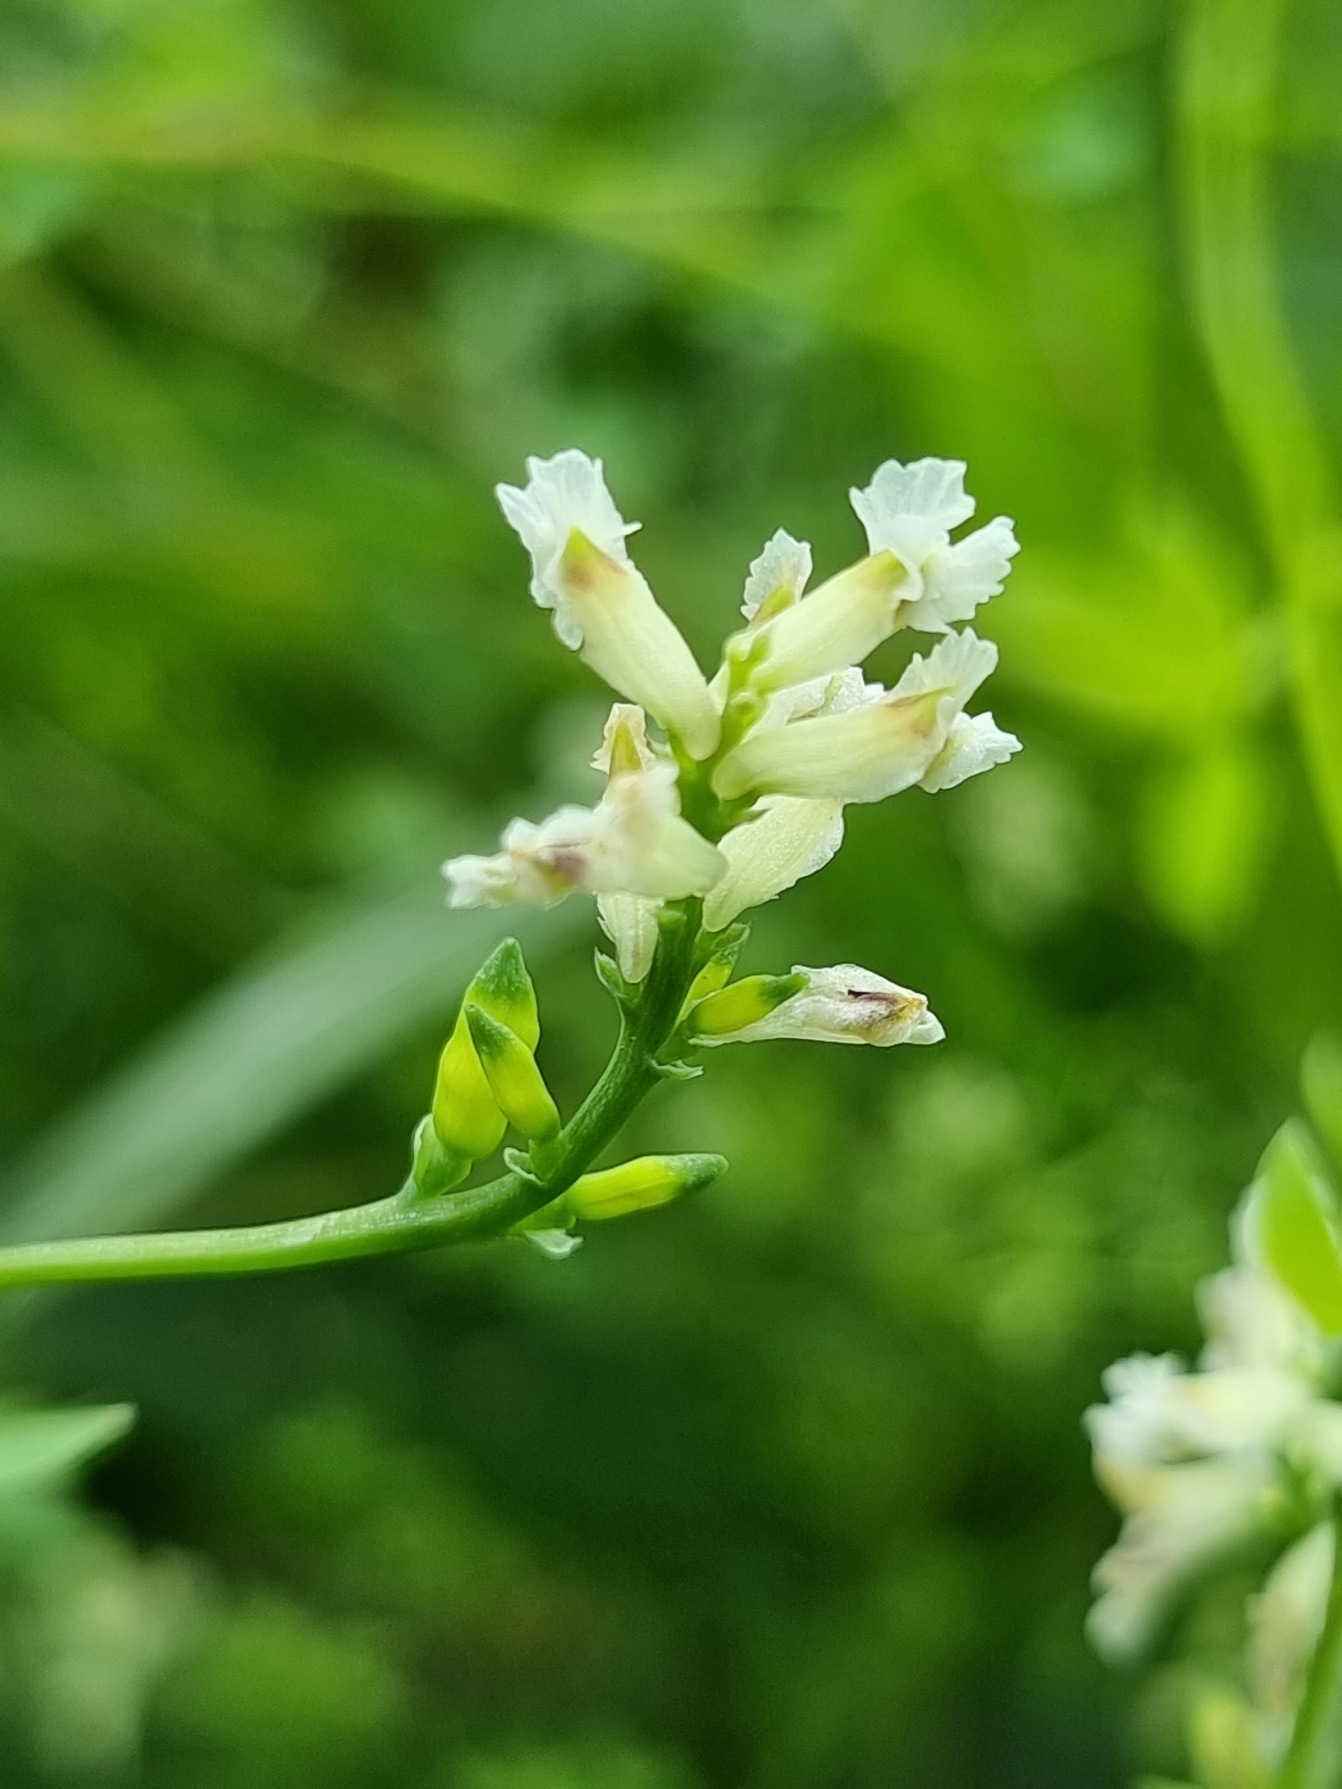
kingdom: Plantae
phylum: Tracheophyta
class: Magnoliopsida
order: Ranunculales
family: Papaveraceae
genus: Ceratocapnos
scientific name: Ceratocapnos claviculata
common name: Klatrende lærkespore
